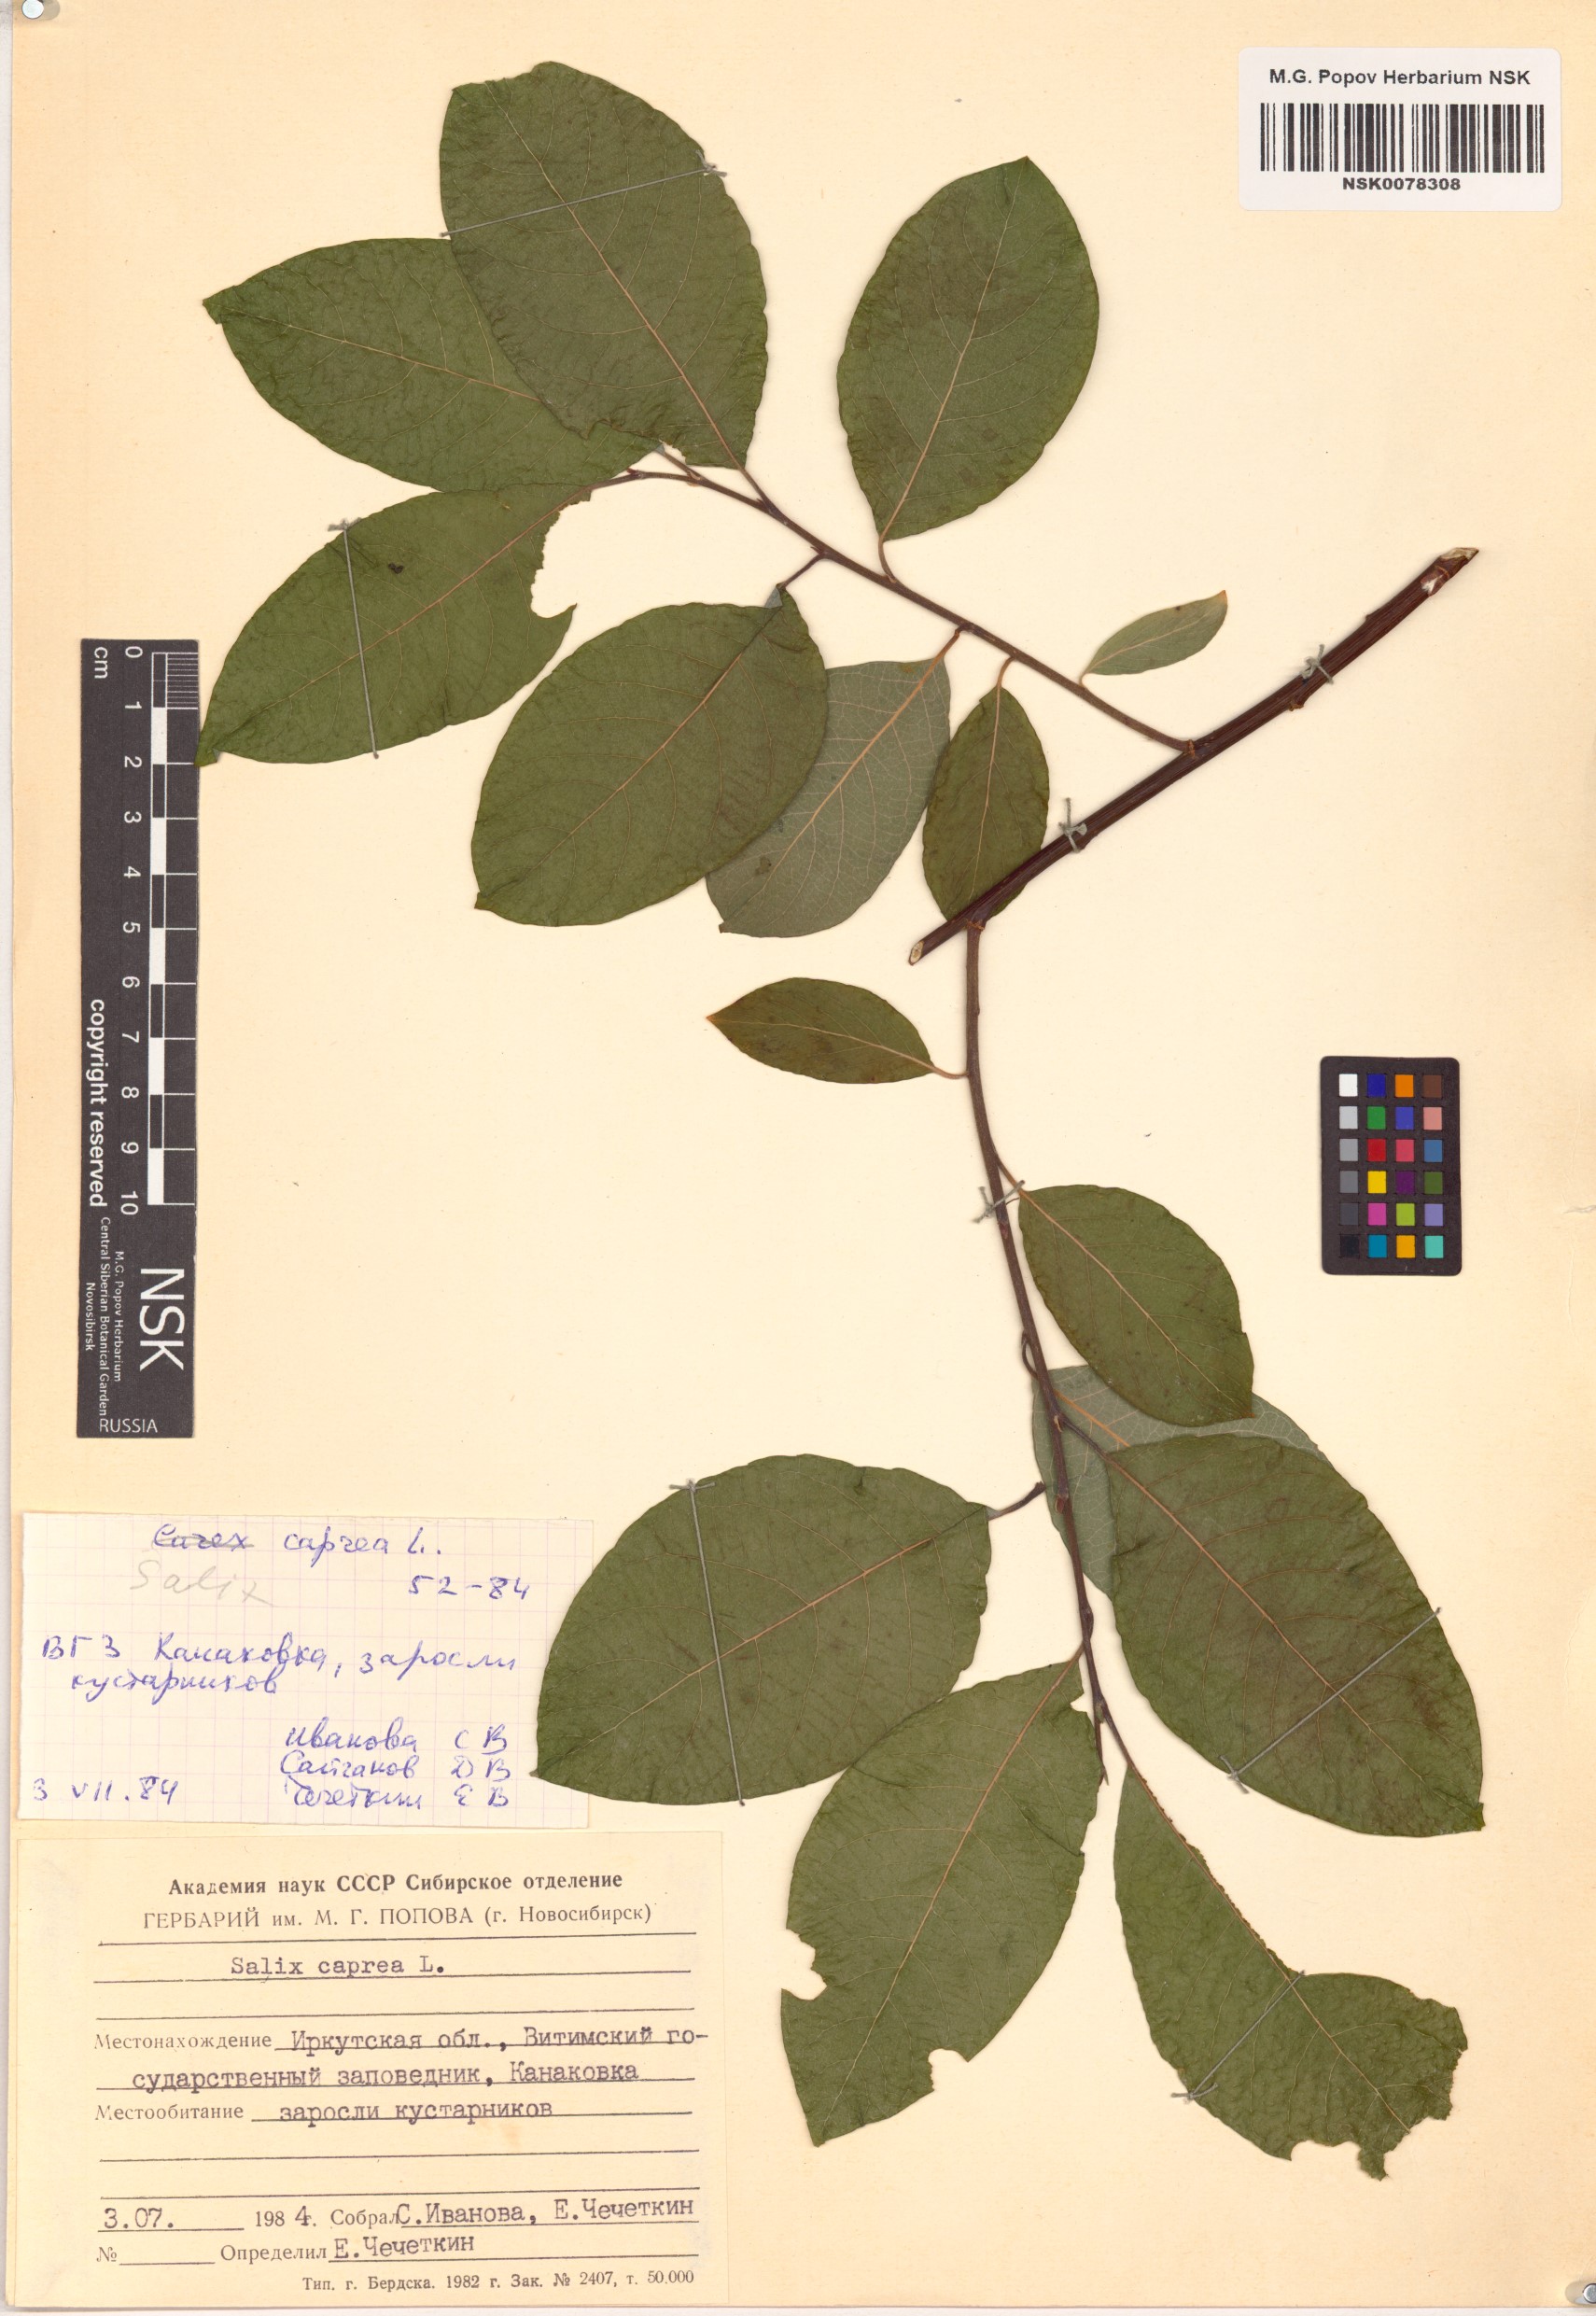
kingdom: Plantae
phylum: Tracheophyta
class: Magnoliopsida
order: Malpighiales
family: Salicaceae
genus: Salix
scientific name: Salix caprea
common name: Goat willow
